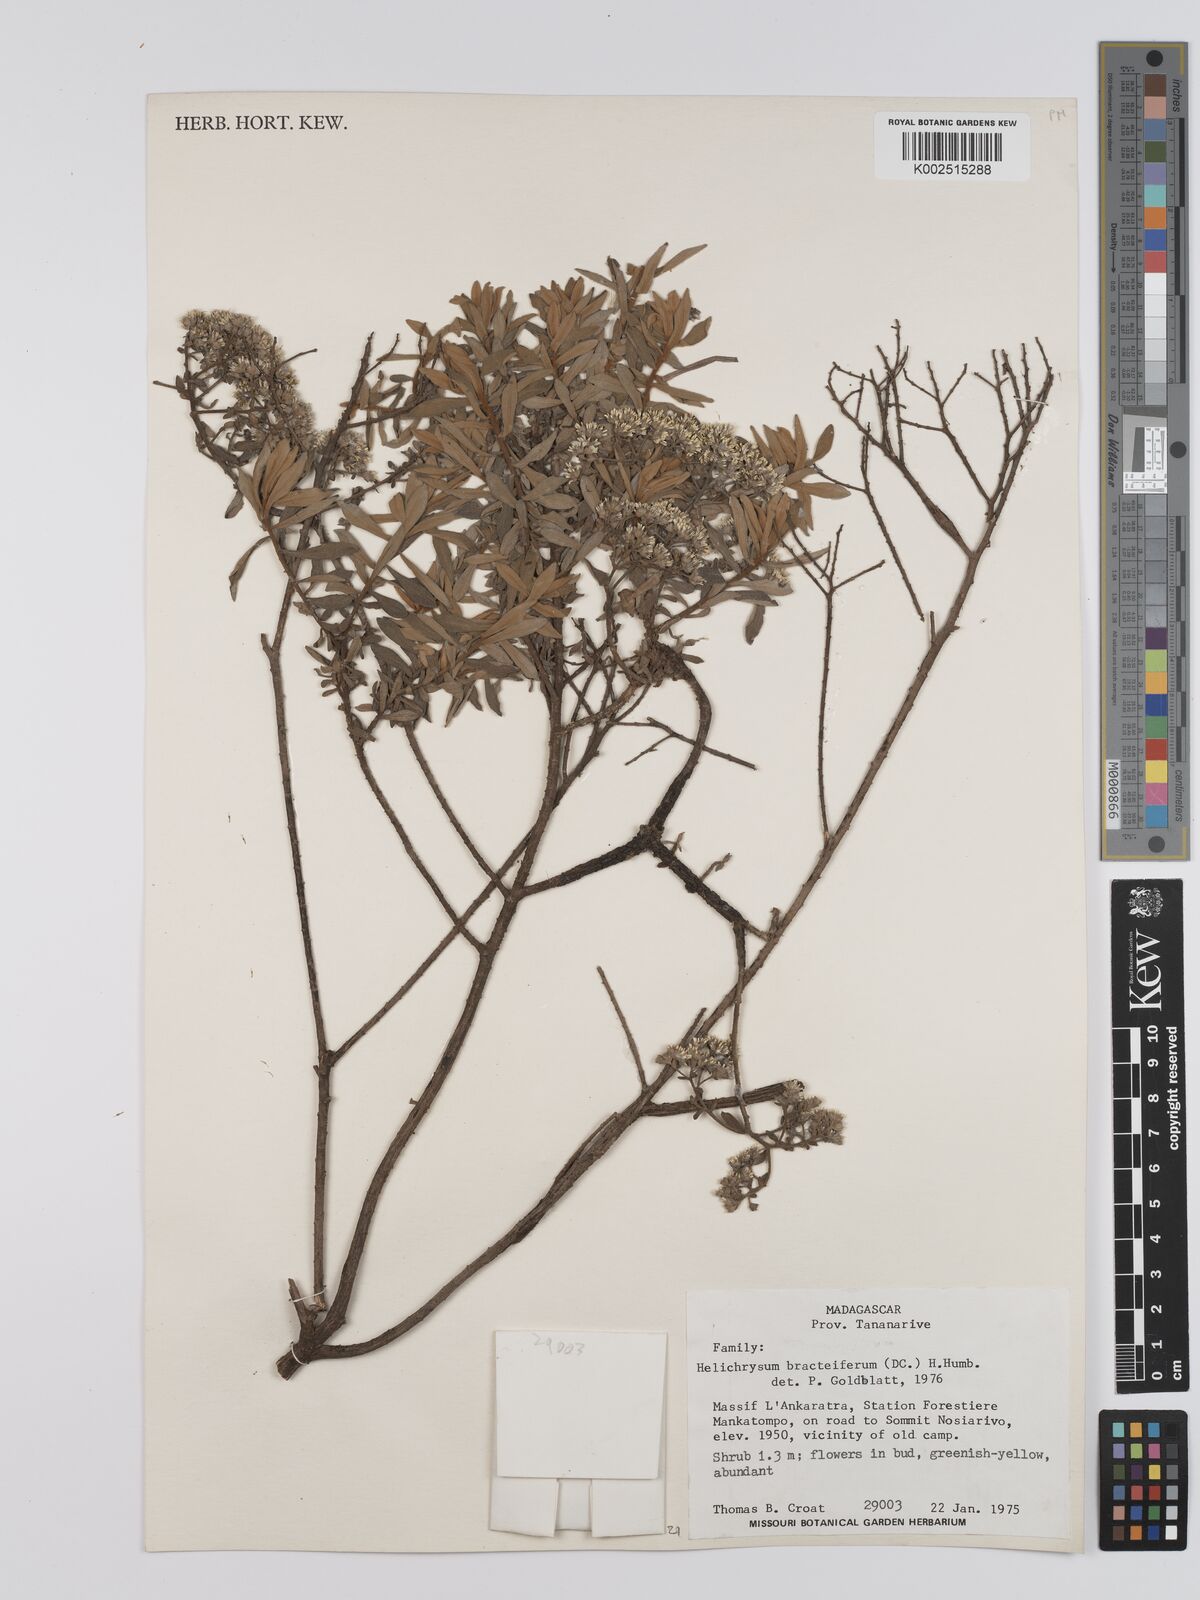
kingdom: Plantae
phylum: Tracheophyta
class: Magnoliopsida
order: Asterales
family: Asteraceae
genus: Helichrysum
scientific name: Helichrysum bracteiferum
